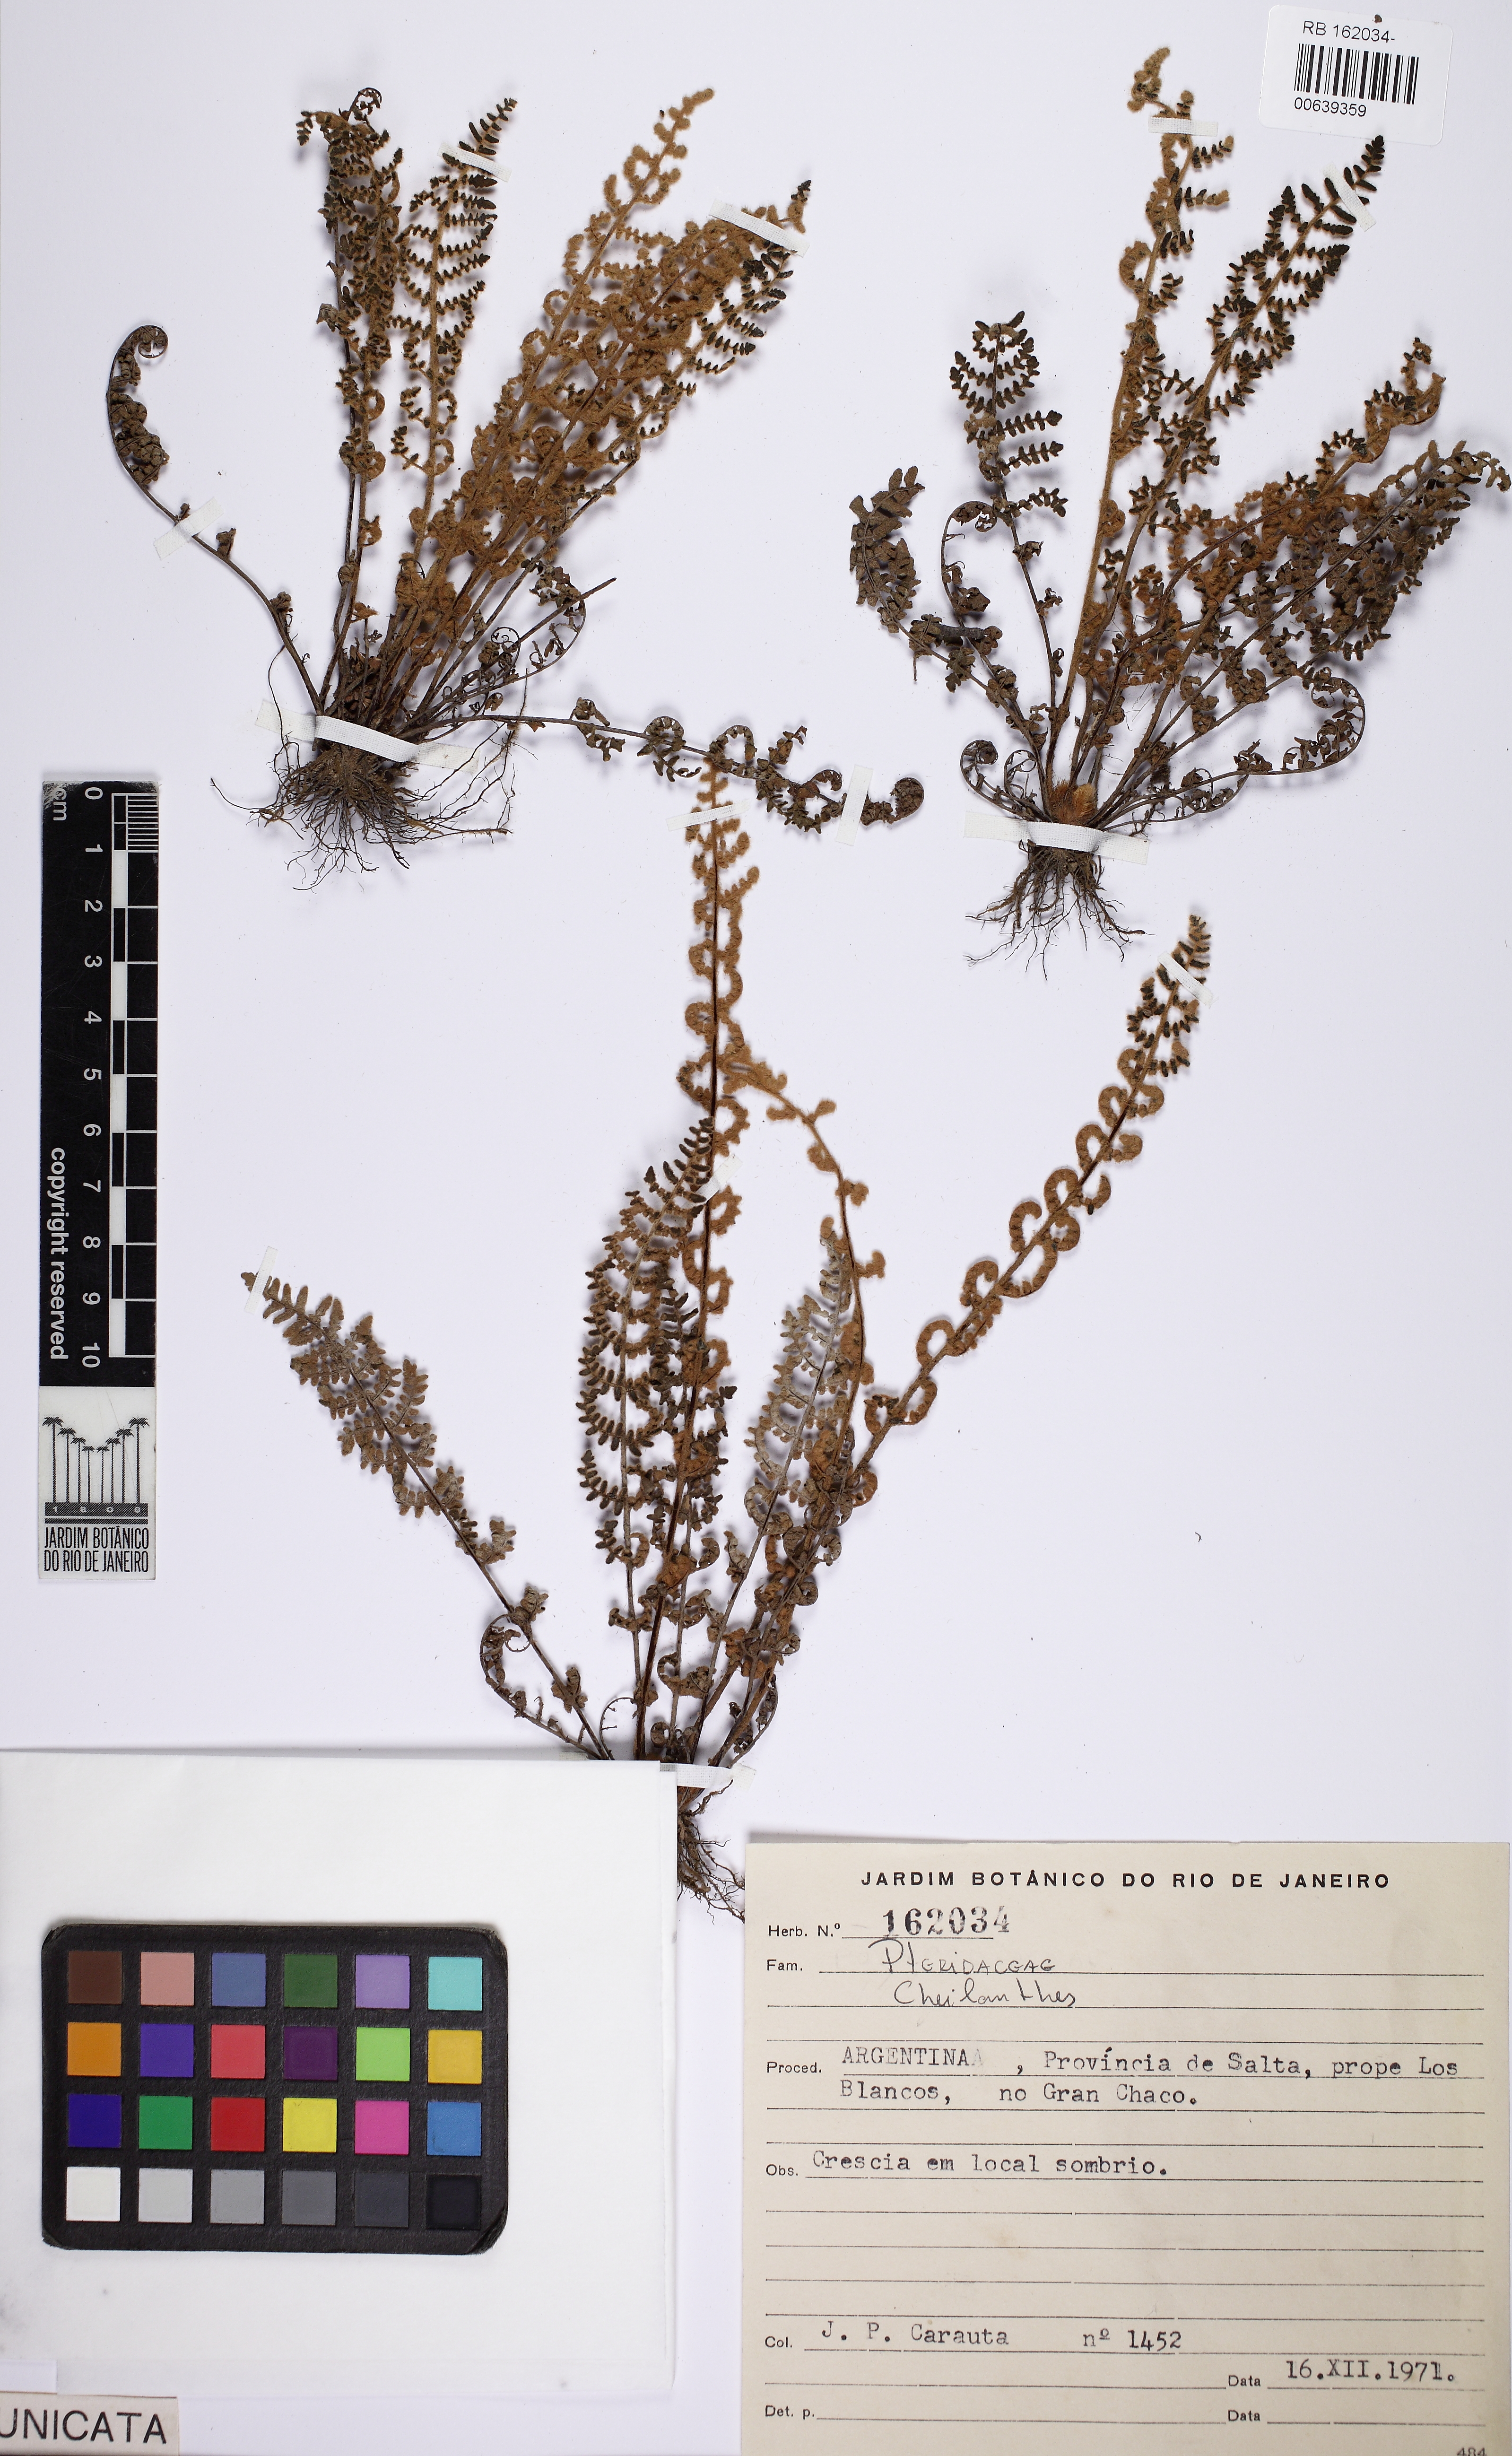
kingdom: Plantae
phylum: Tracheophyta
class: Polypodiopsida
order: Polypodiales
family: Pteridaceae
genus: Cheilanthes
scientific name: Cheilanthes
